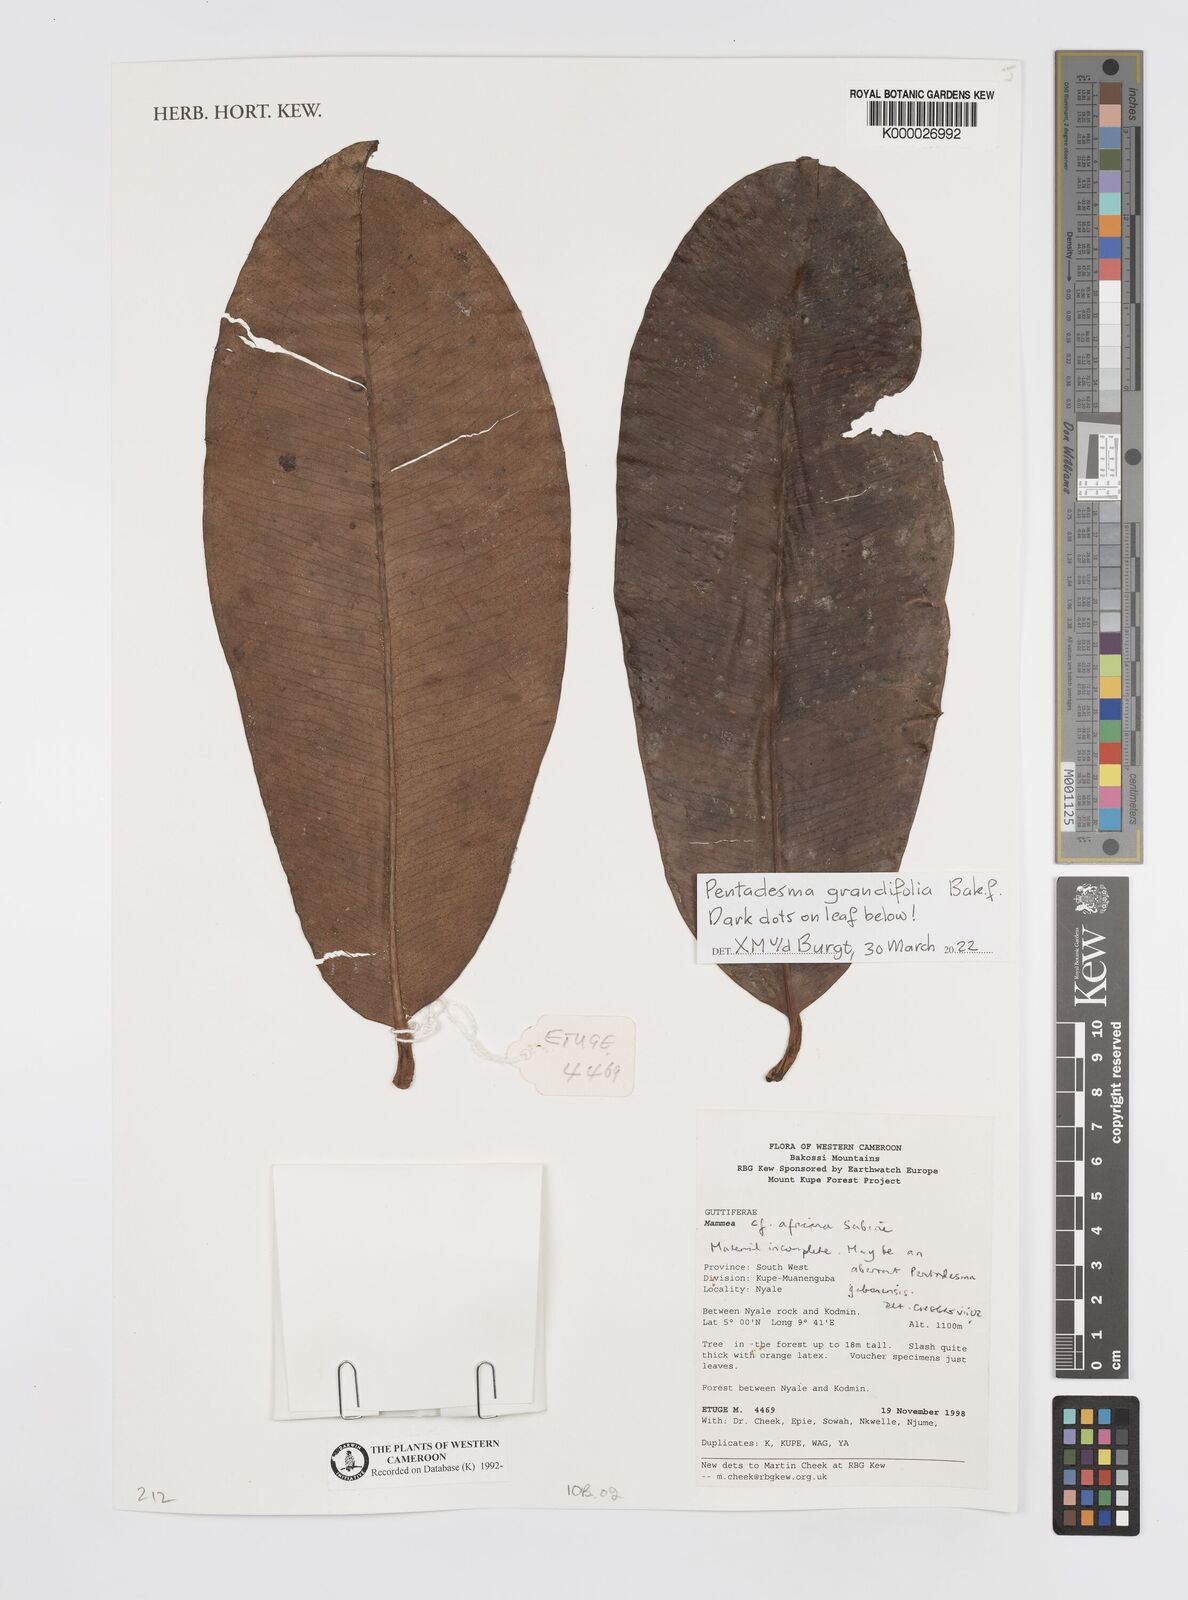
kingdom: Plantae
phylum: Tracheophyta
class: Magnoliopsida
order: Malpighiales
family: Calophyllaceae
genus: Mammea
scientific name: Mammea africana
